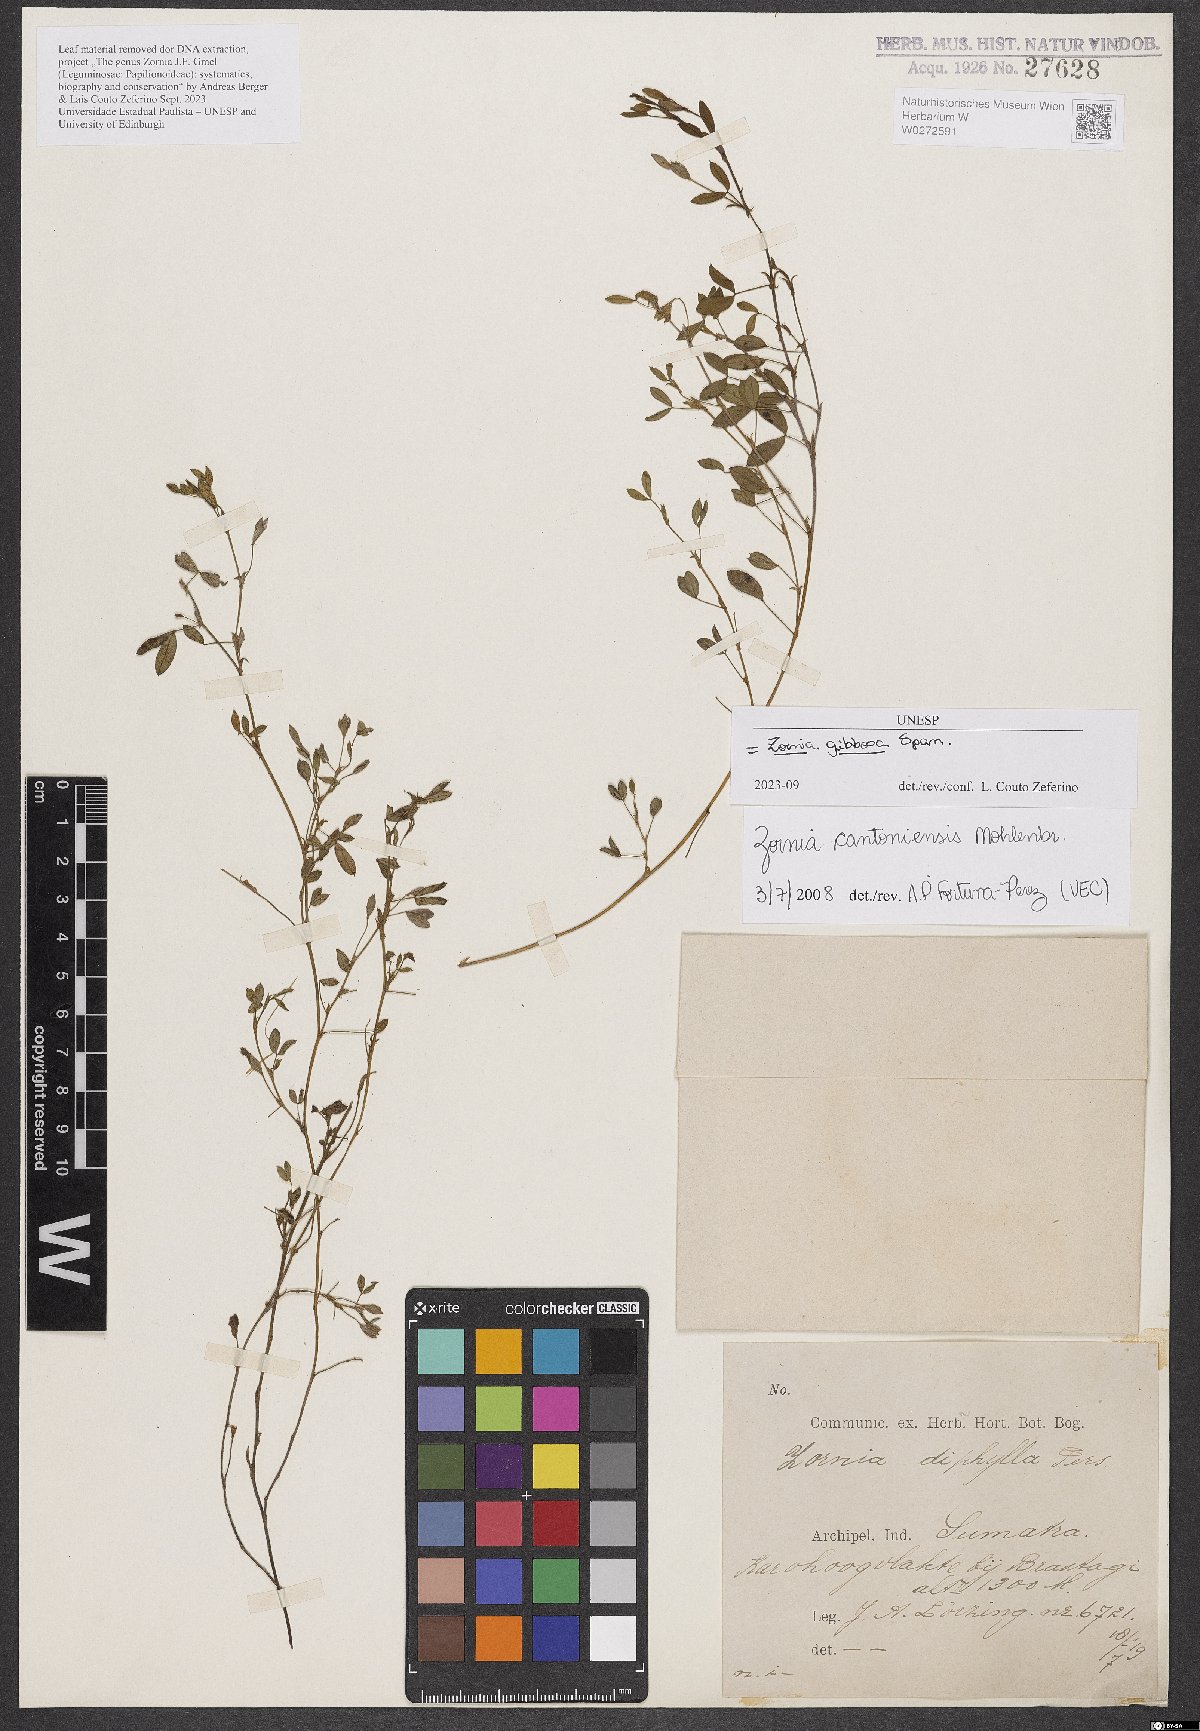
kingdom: Plantae
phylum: Tracheophyta
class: Magnoliopsida
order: Fabales
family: Fabaceae
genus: Zornia
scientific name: Zornia gibbosa
